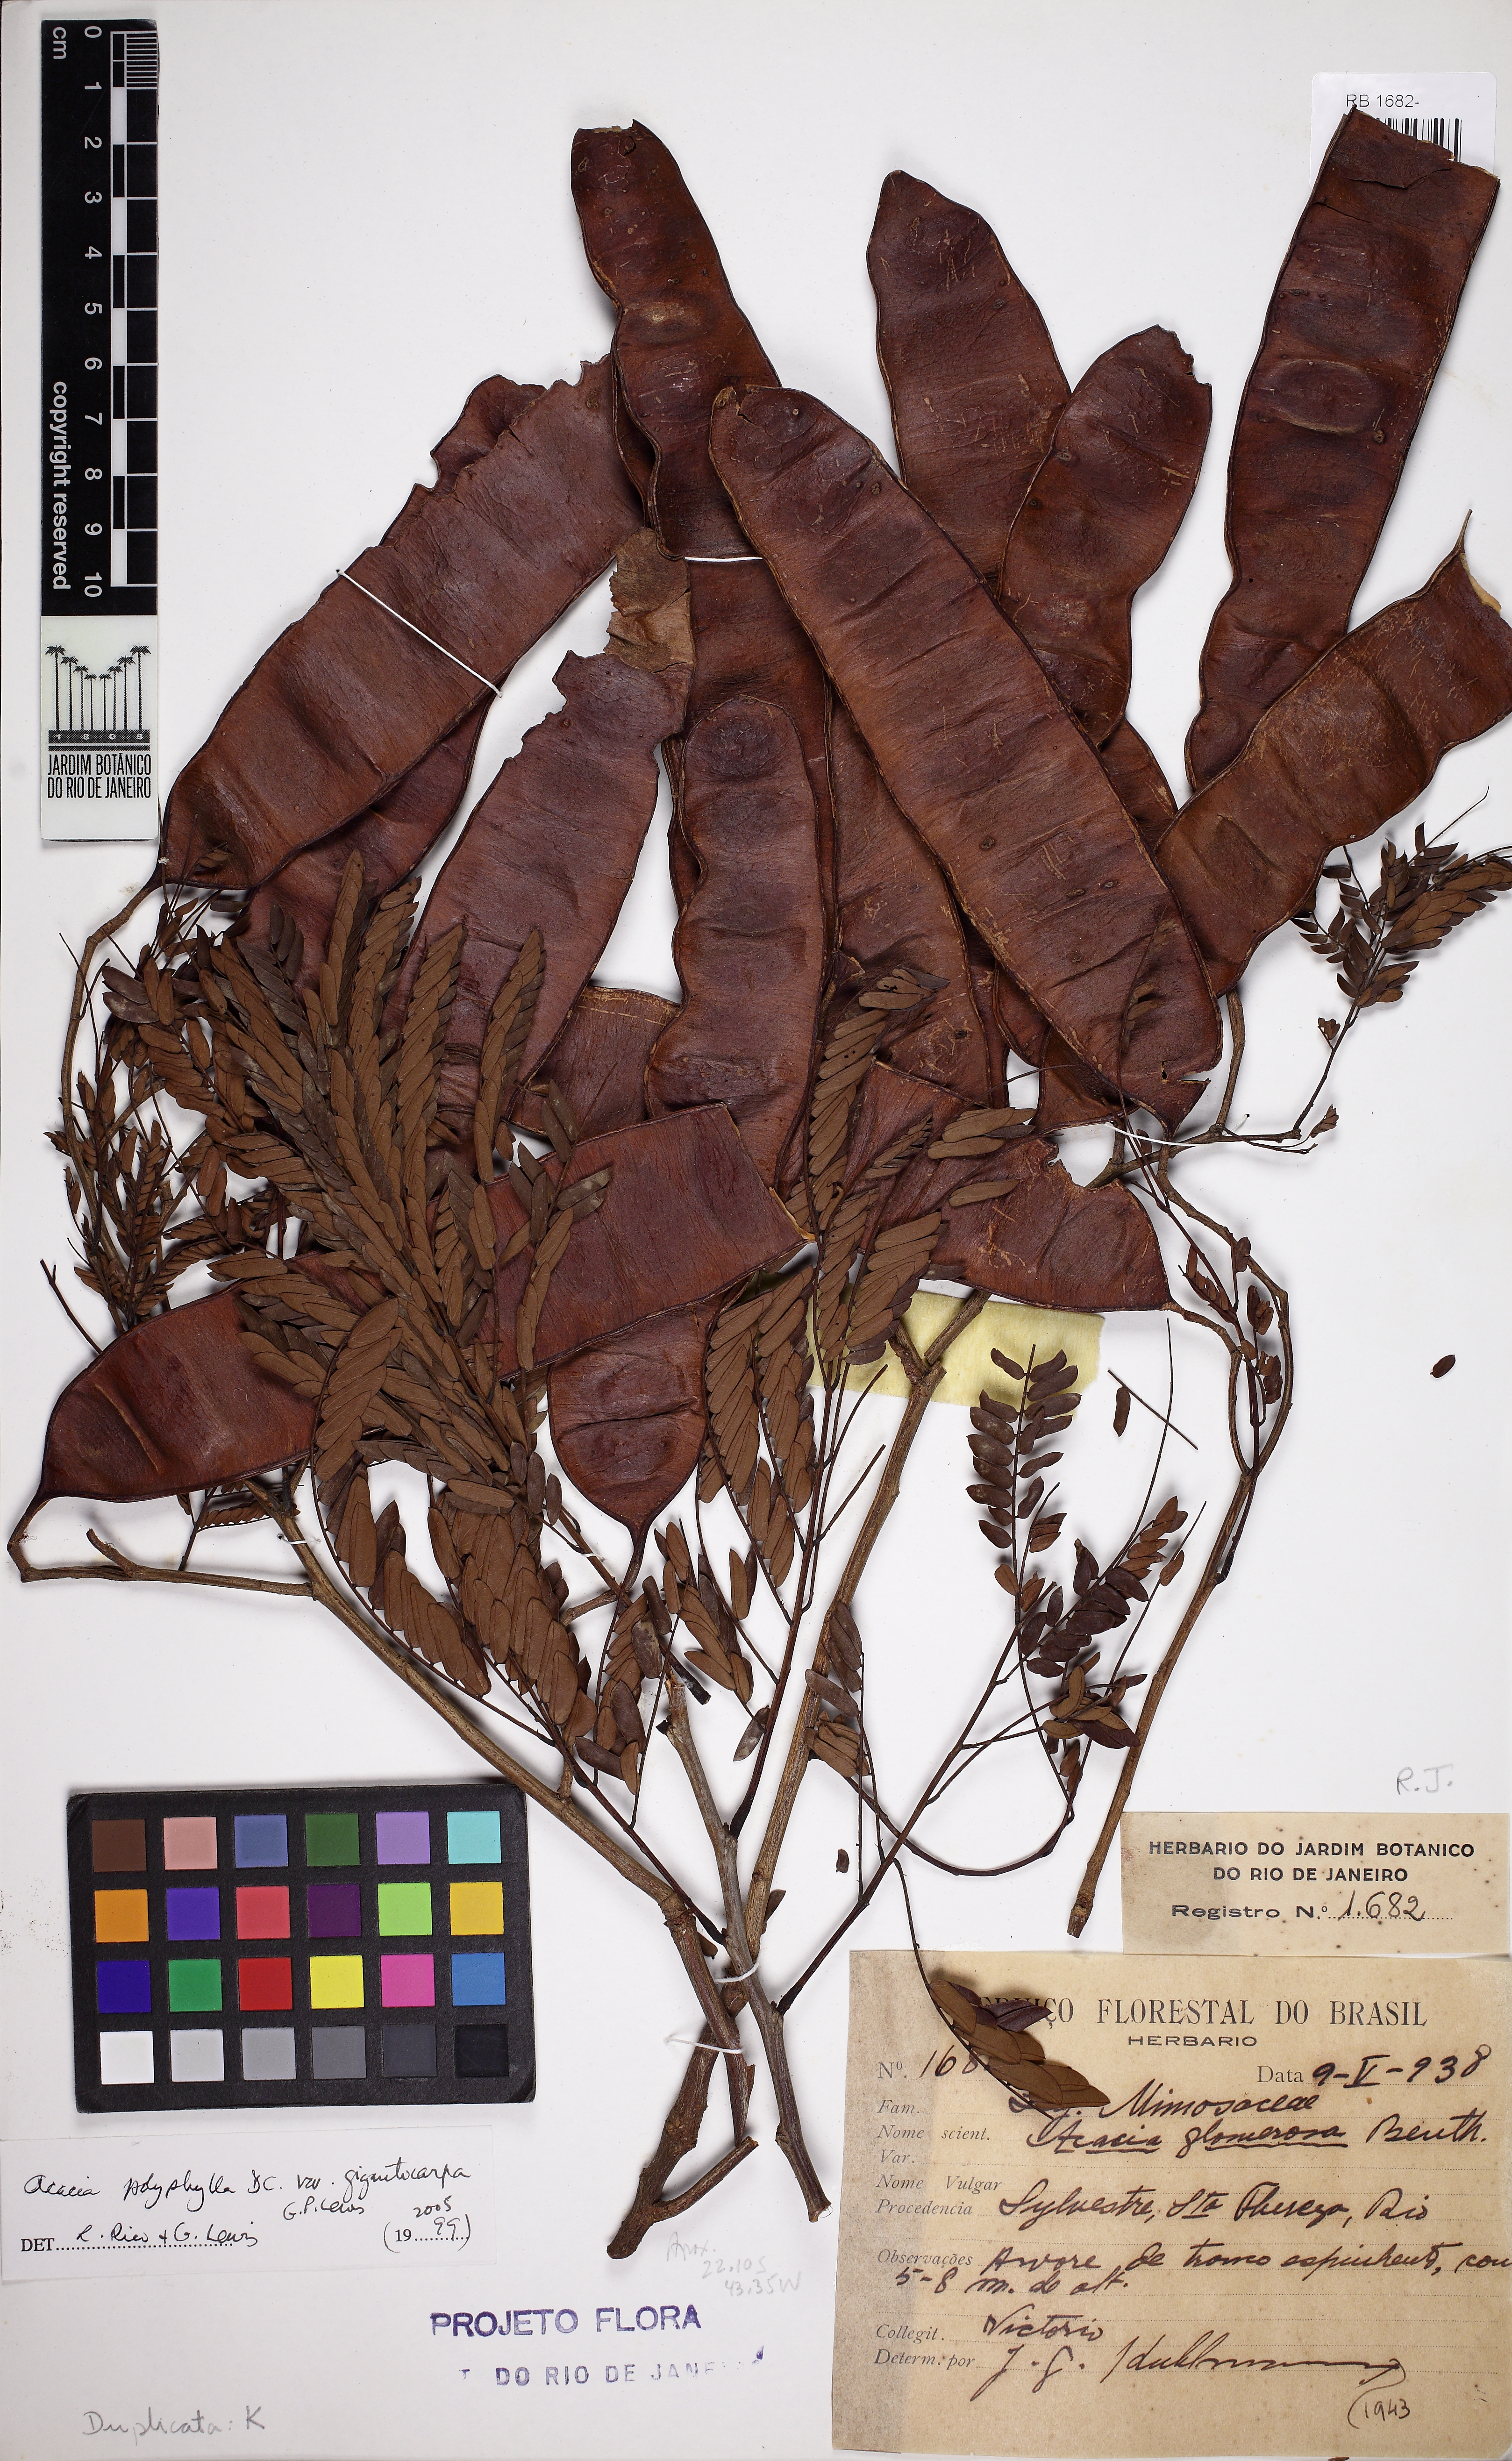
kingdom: Plantae
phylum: Tracheophyta
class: Magnoliopsida
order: Fabales
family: Fabaceae
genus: Senegalia
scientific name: Senegalia giganticarpa
